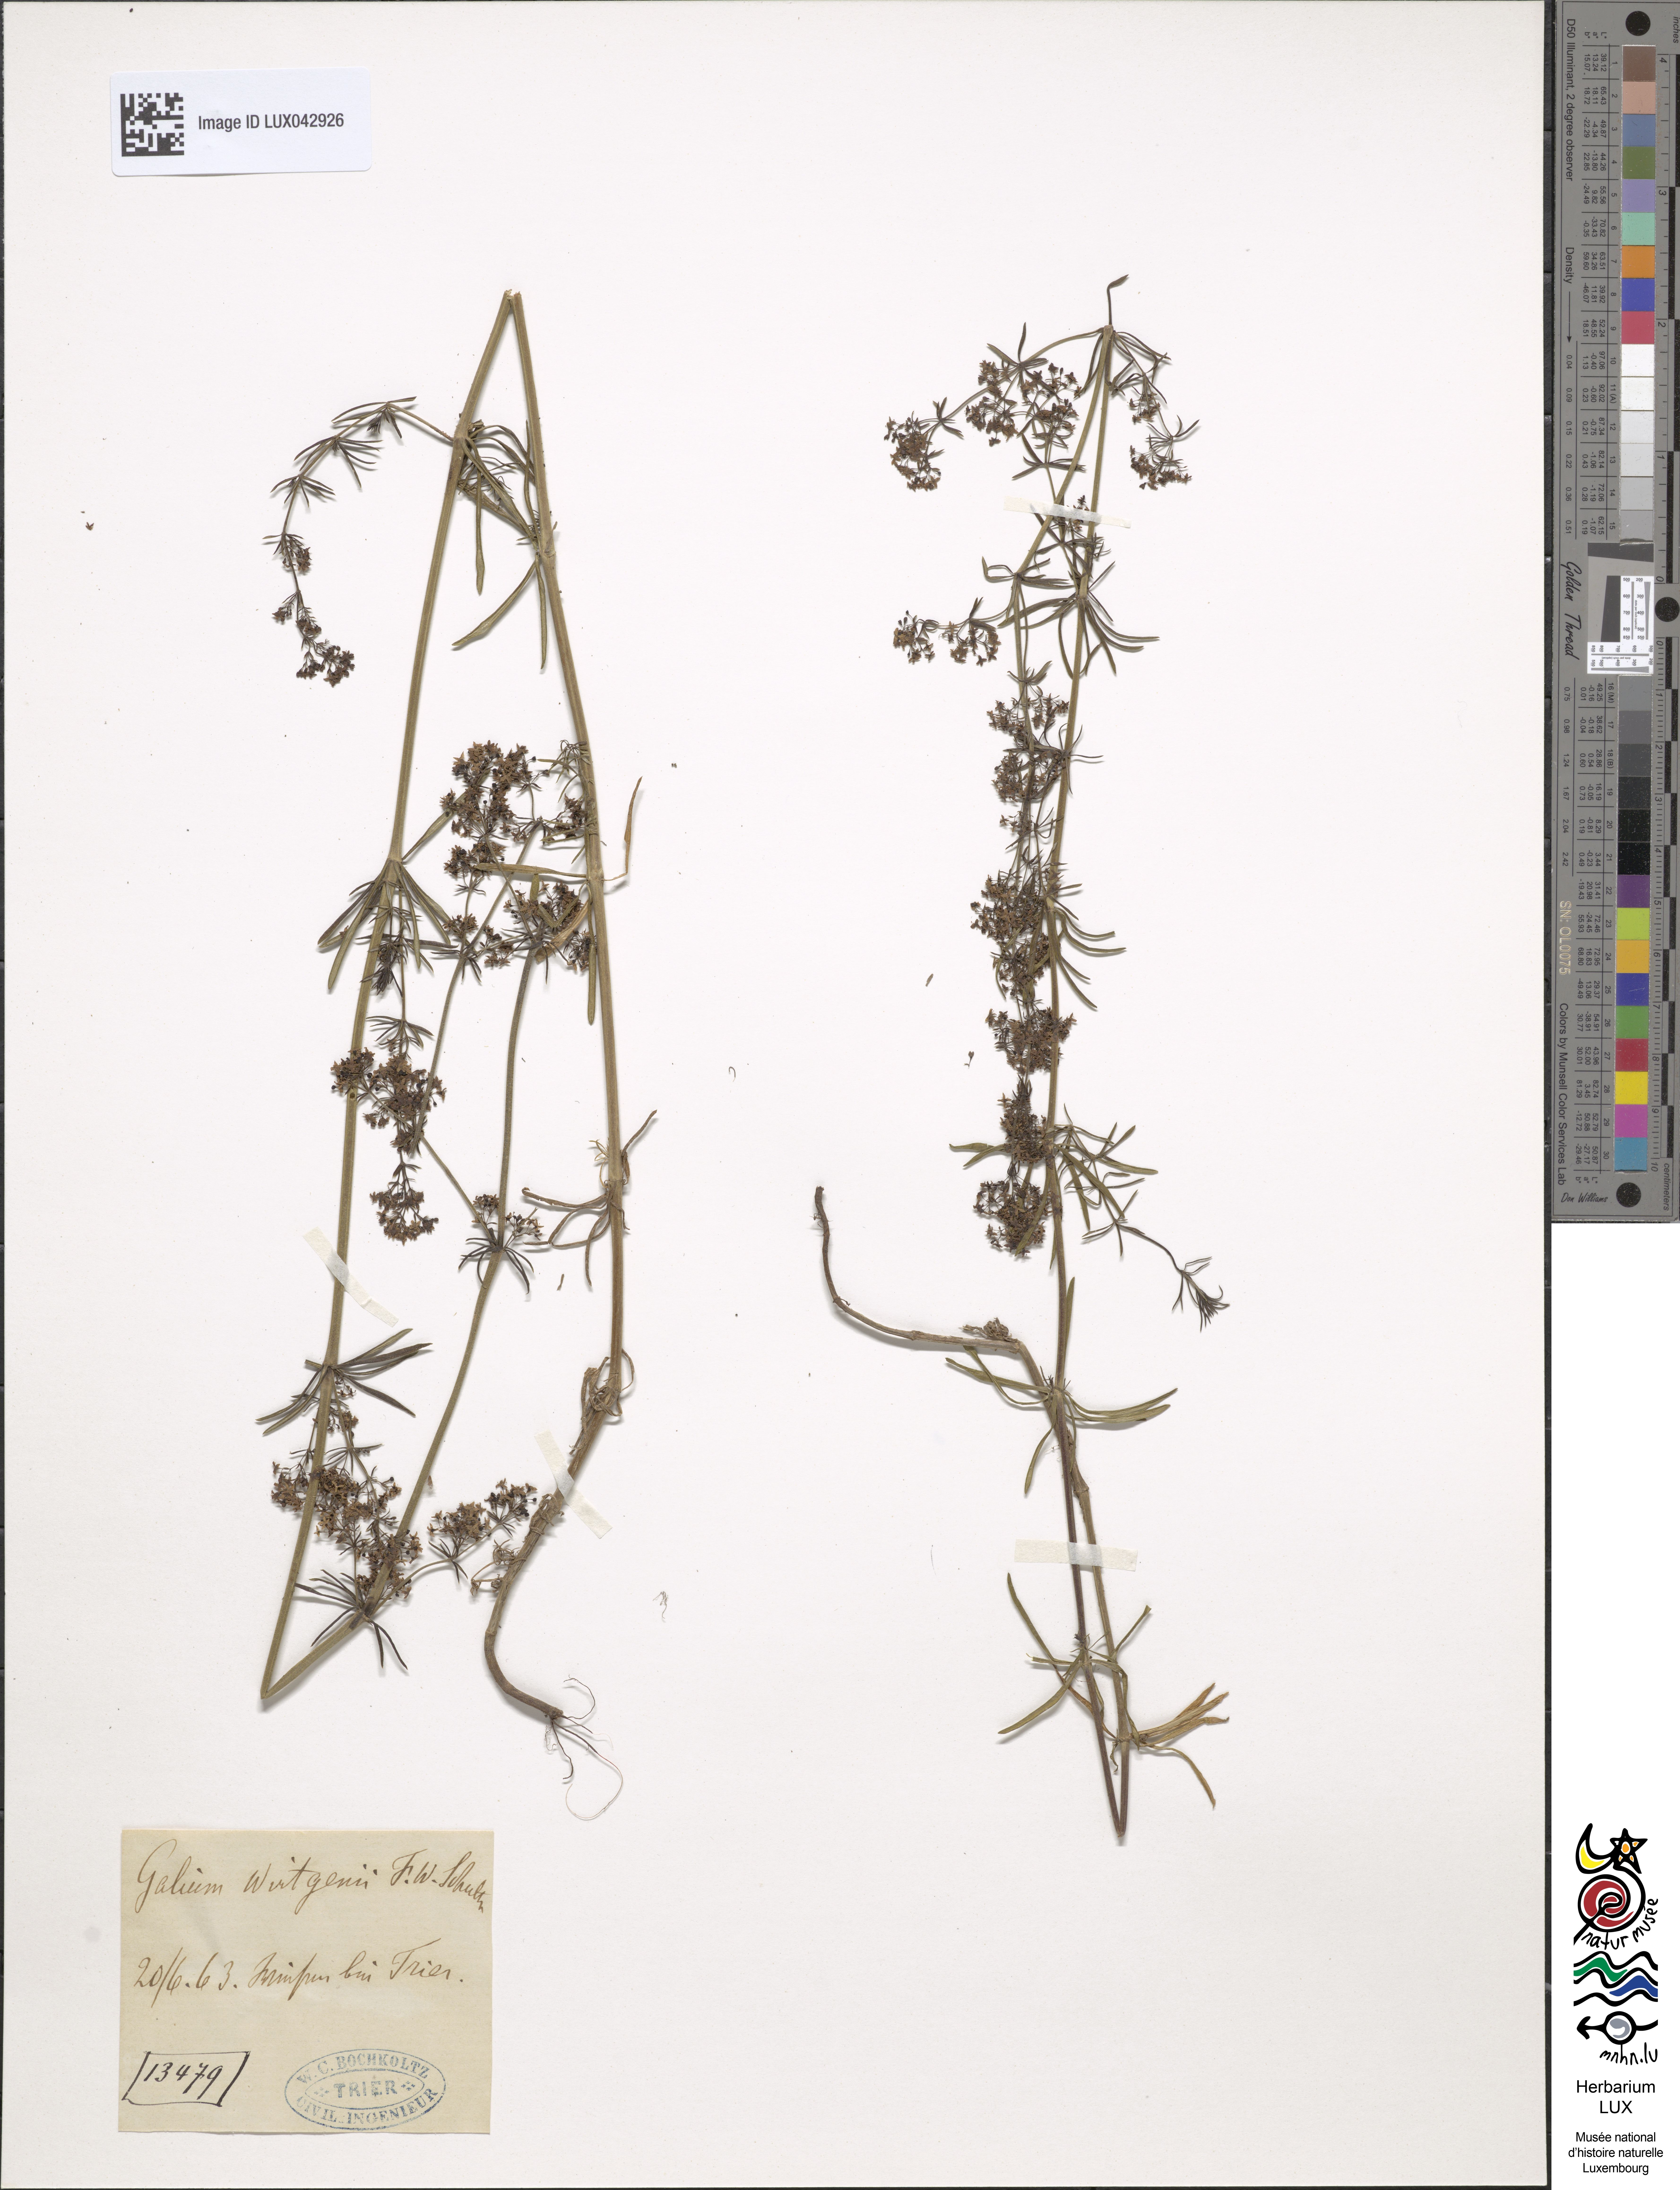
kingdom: Plantae
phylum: Tracheophyta
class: Magnoliopsida
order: Gentianales
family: Rubiaceae
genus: Galium
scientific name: Galium verum
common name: Lady's bedstraw
